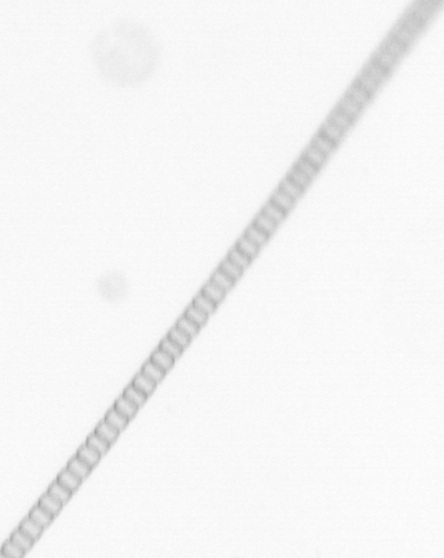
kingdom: Chromista
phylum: Ochrophyta
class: Bacillariophyceae
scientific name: Bacillariophyceae
